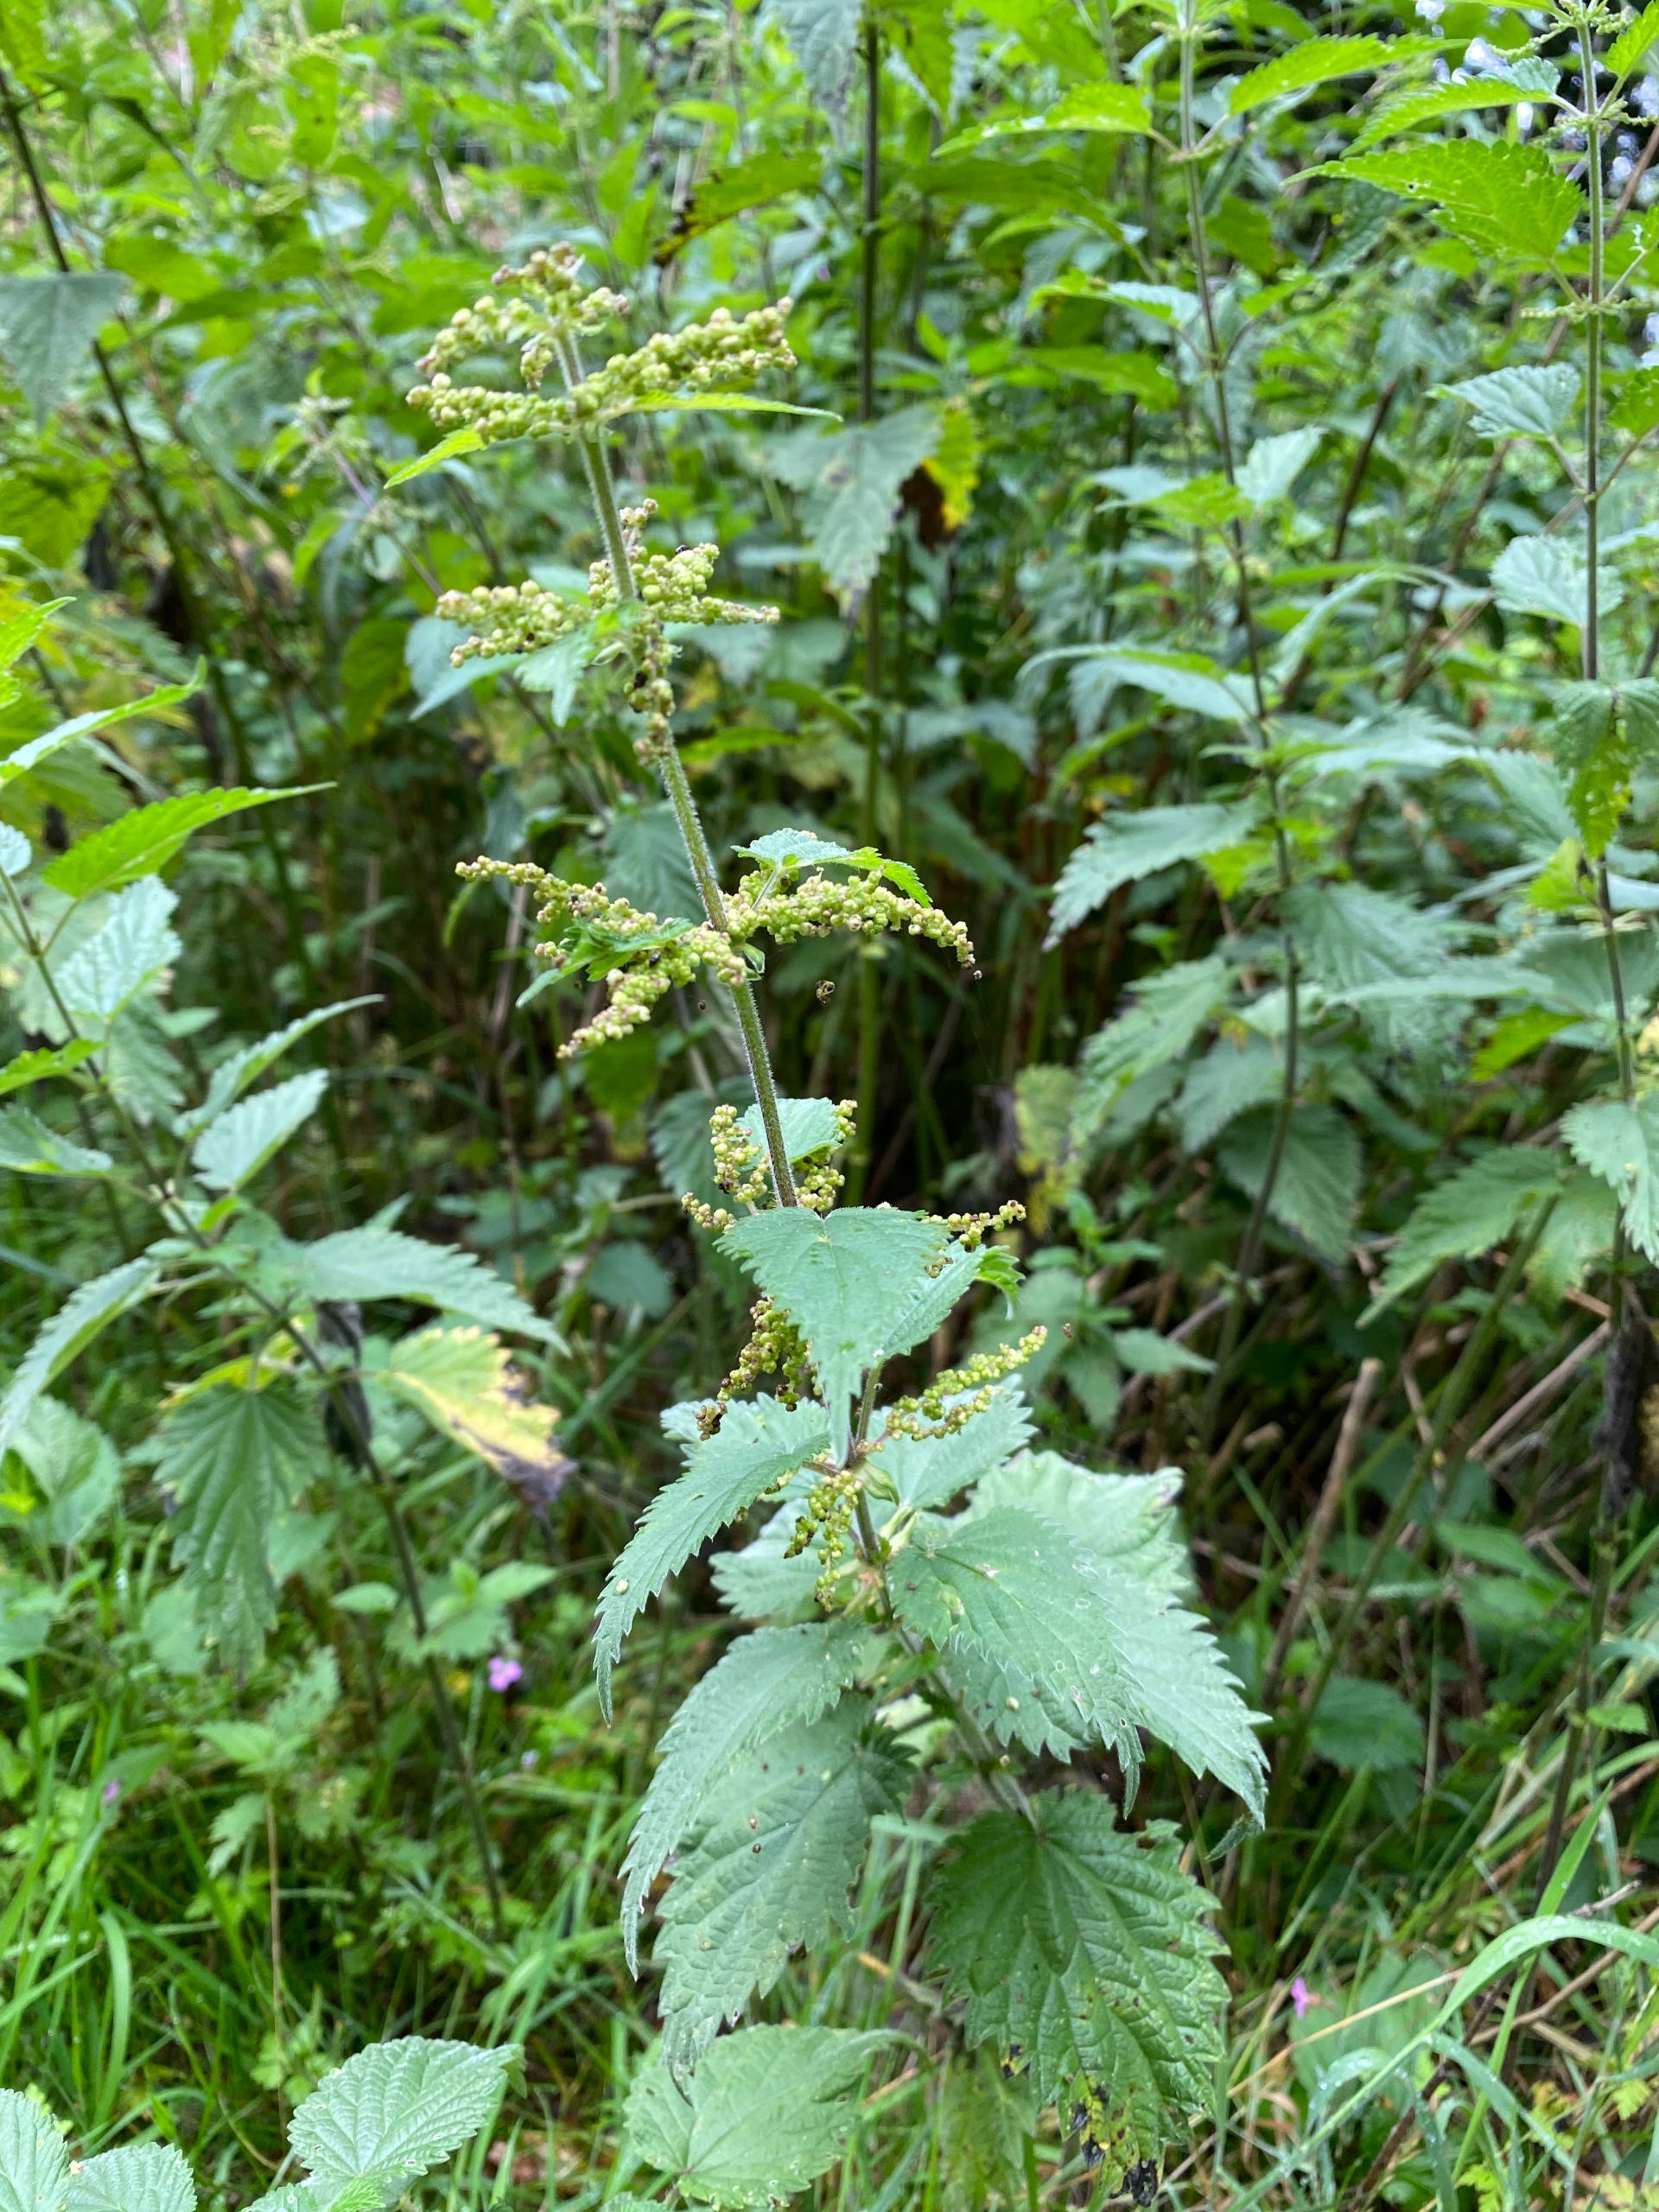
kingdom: Plantae
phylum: Tracheophyta
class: Magnoliopsida
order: Rosales
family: Urticaceae
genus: Urtica
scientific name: Urtica dioica
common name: Stor nælde
